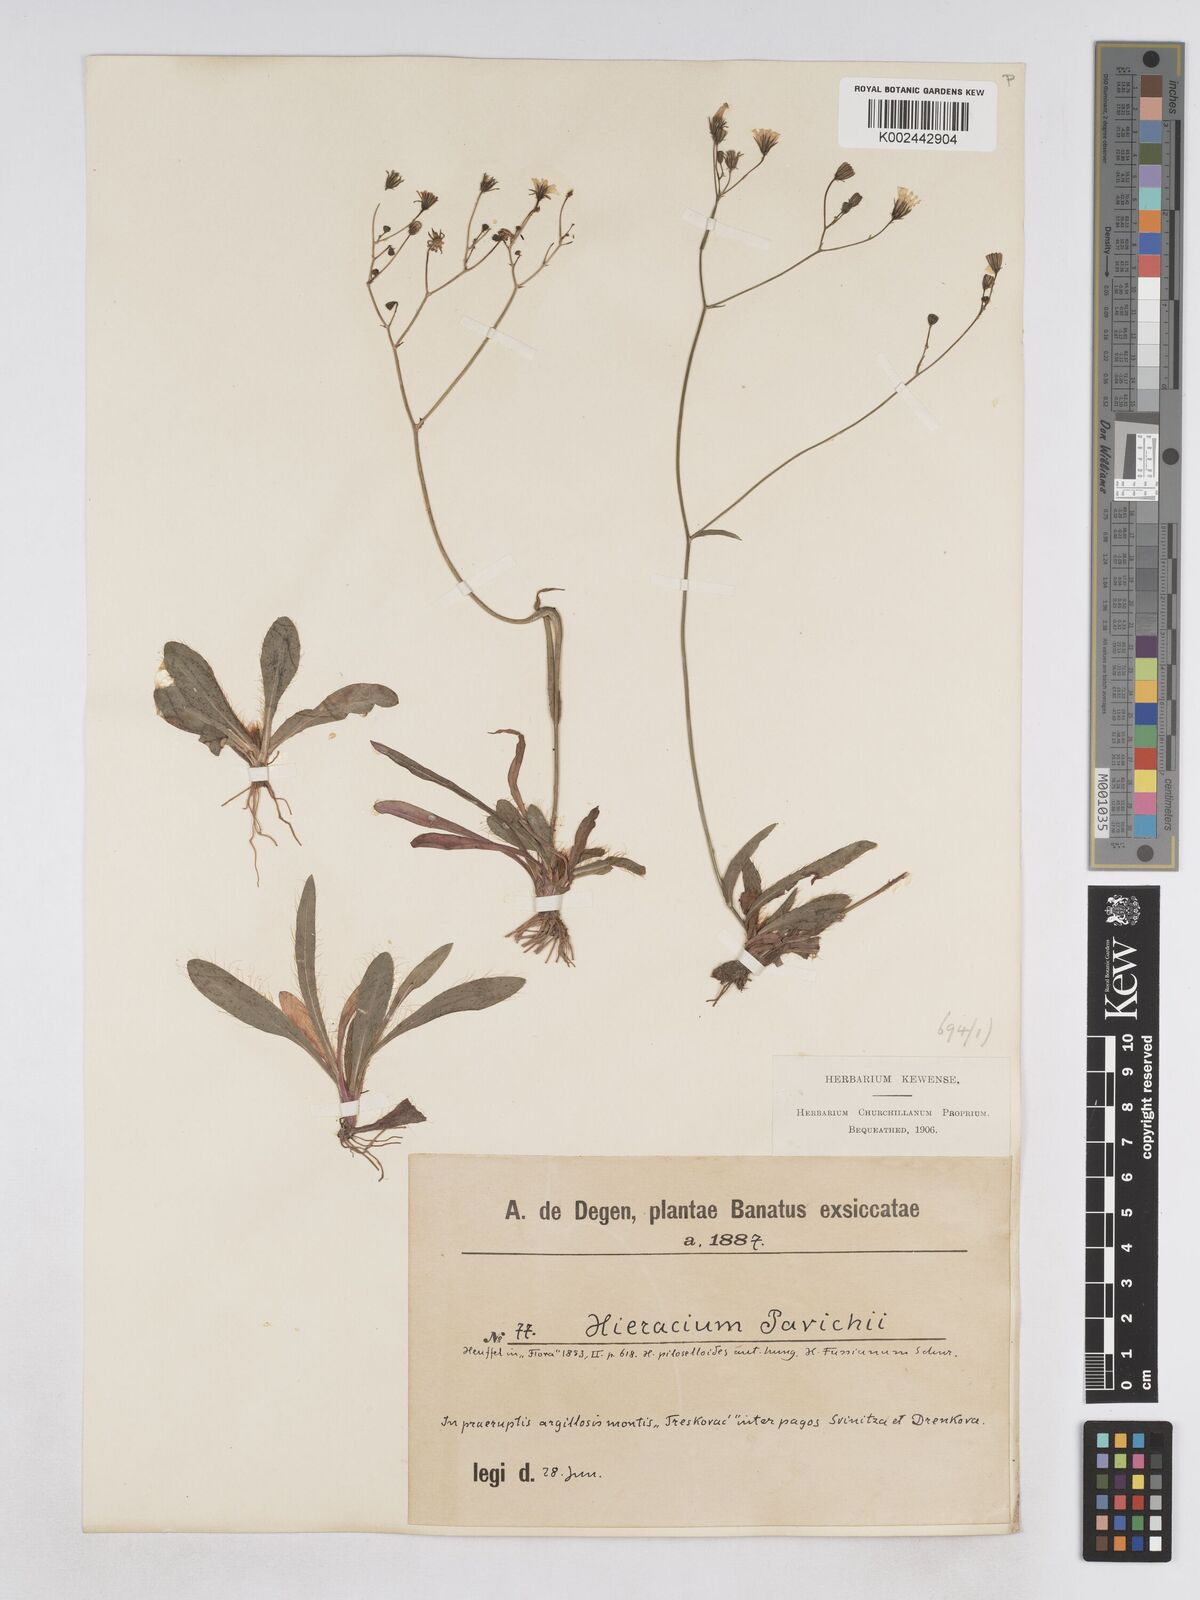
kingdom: Plantae
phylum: Tracheophyta
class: Magnoliopsida
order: Asterales
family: Asteraceae
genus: Pilosella
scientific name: Pilosella pavichii
